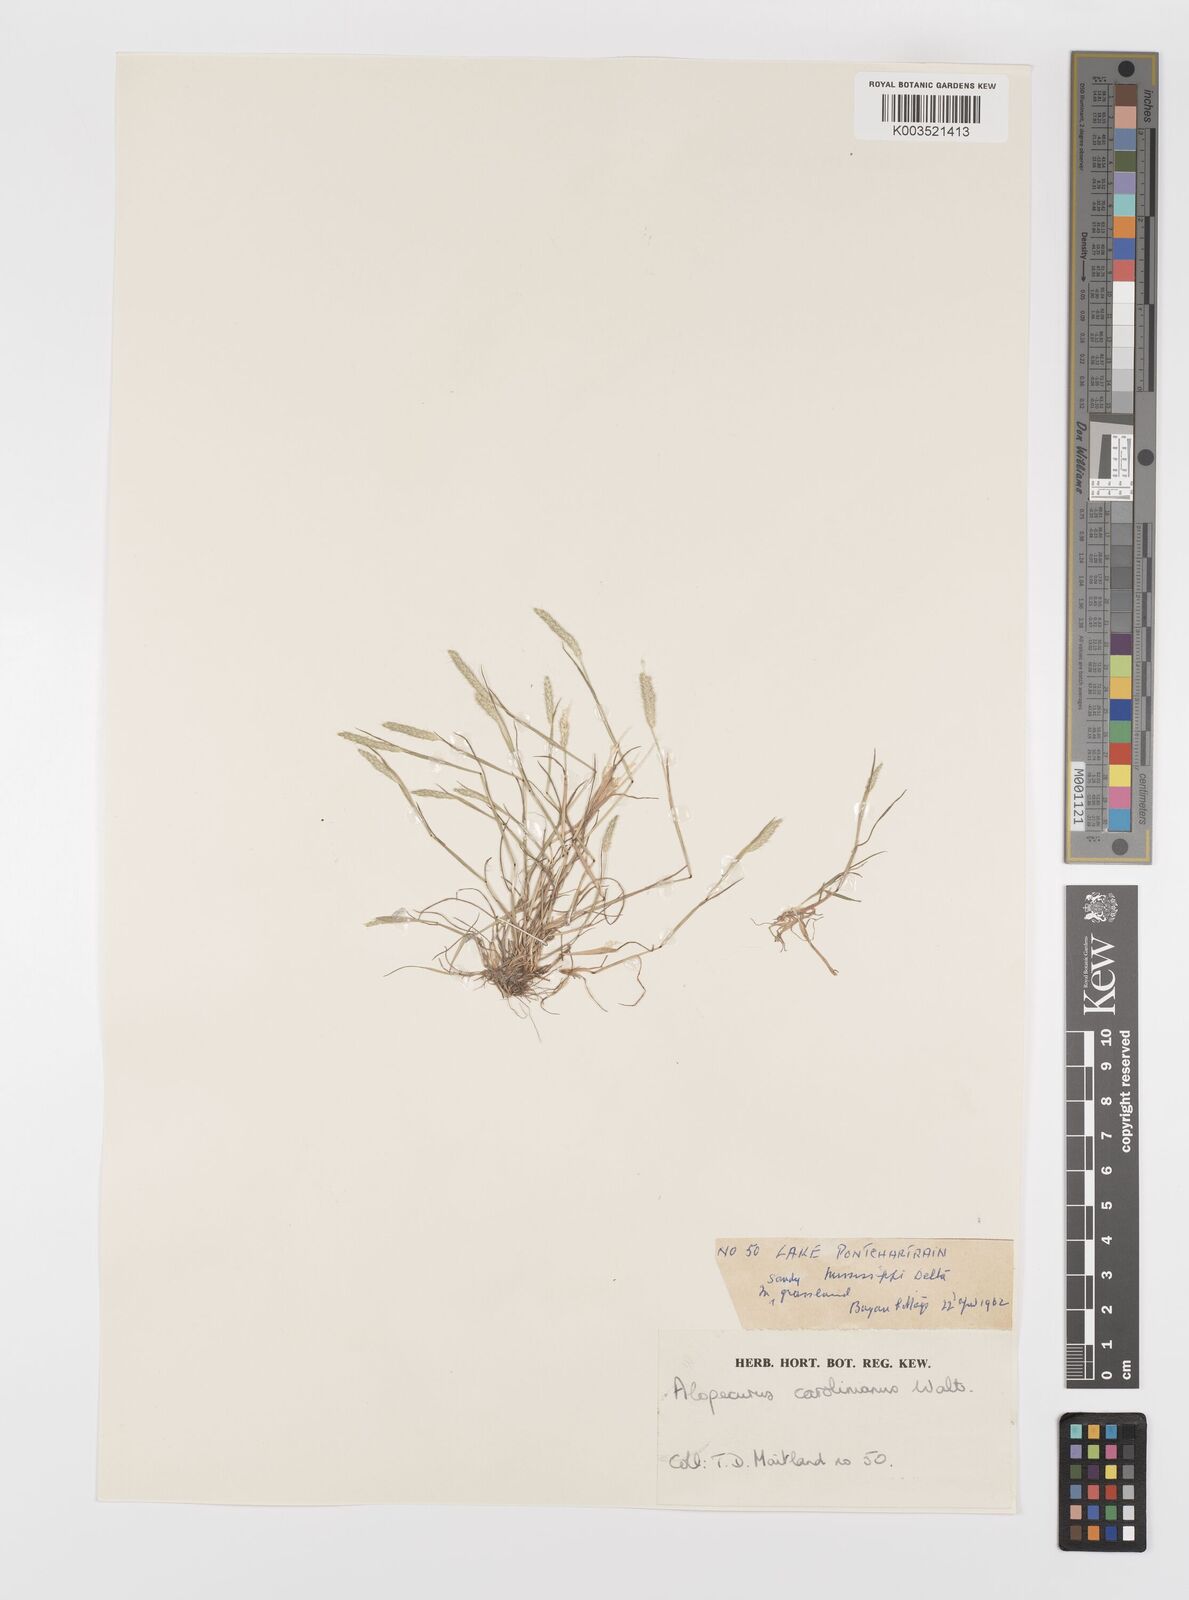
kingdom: Plantae
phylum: Tracheophyta
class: Liliopsida
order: Poales
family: Poaceae
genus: Alopecurus
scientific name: Alopecurus carolinianus
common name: Tufted foxtail
